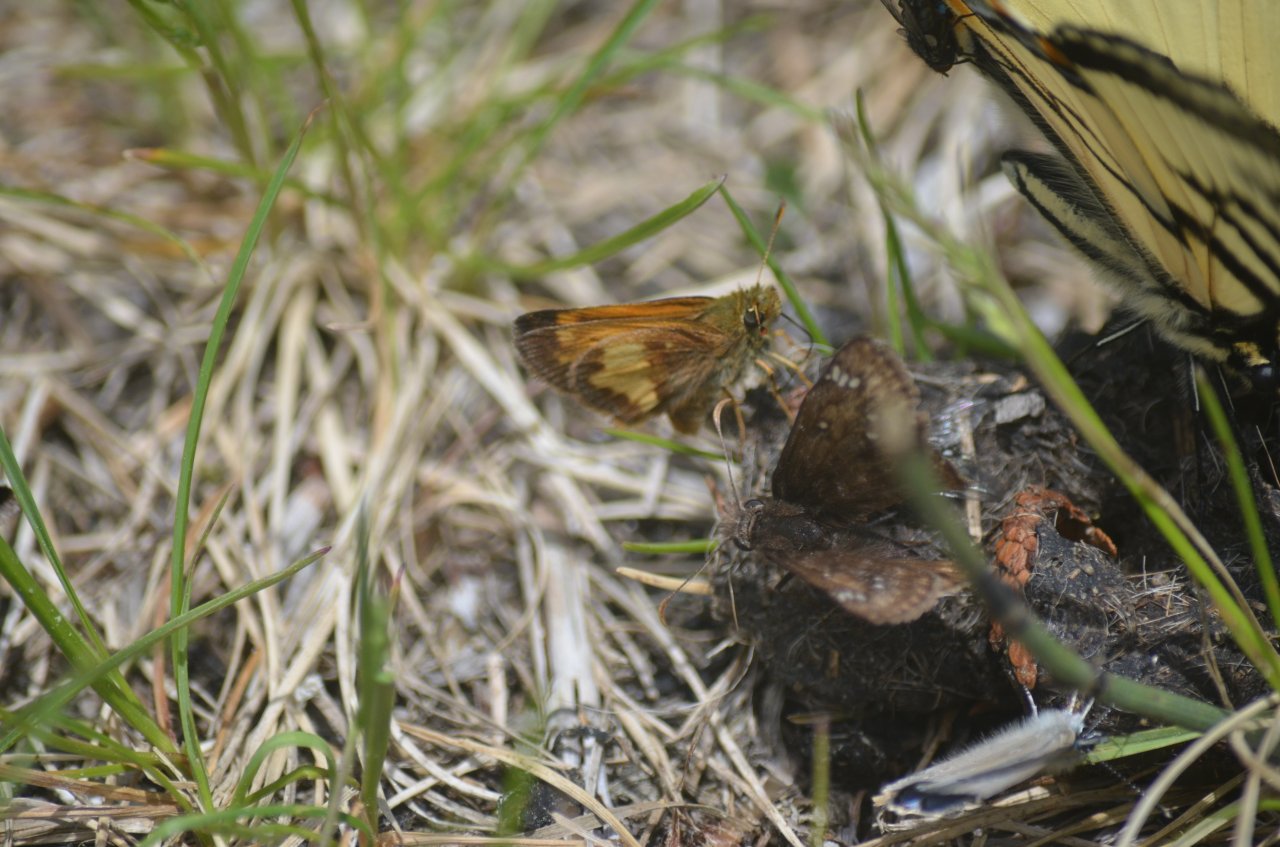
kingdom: Animalia
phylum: Arthropoda
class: Insecta
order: Lepidoptera
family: Hesperiidae
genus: Lon
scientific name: Lon hobomok
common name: Hobomok Skipper
